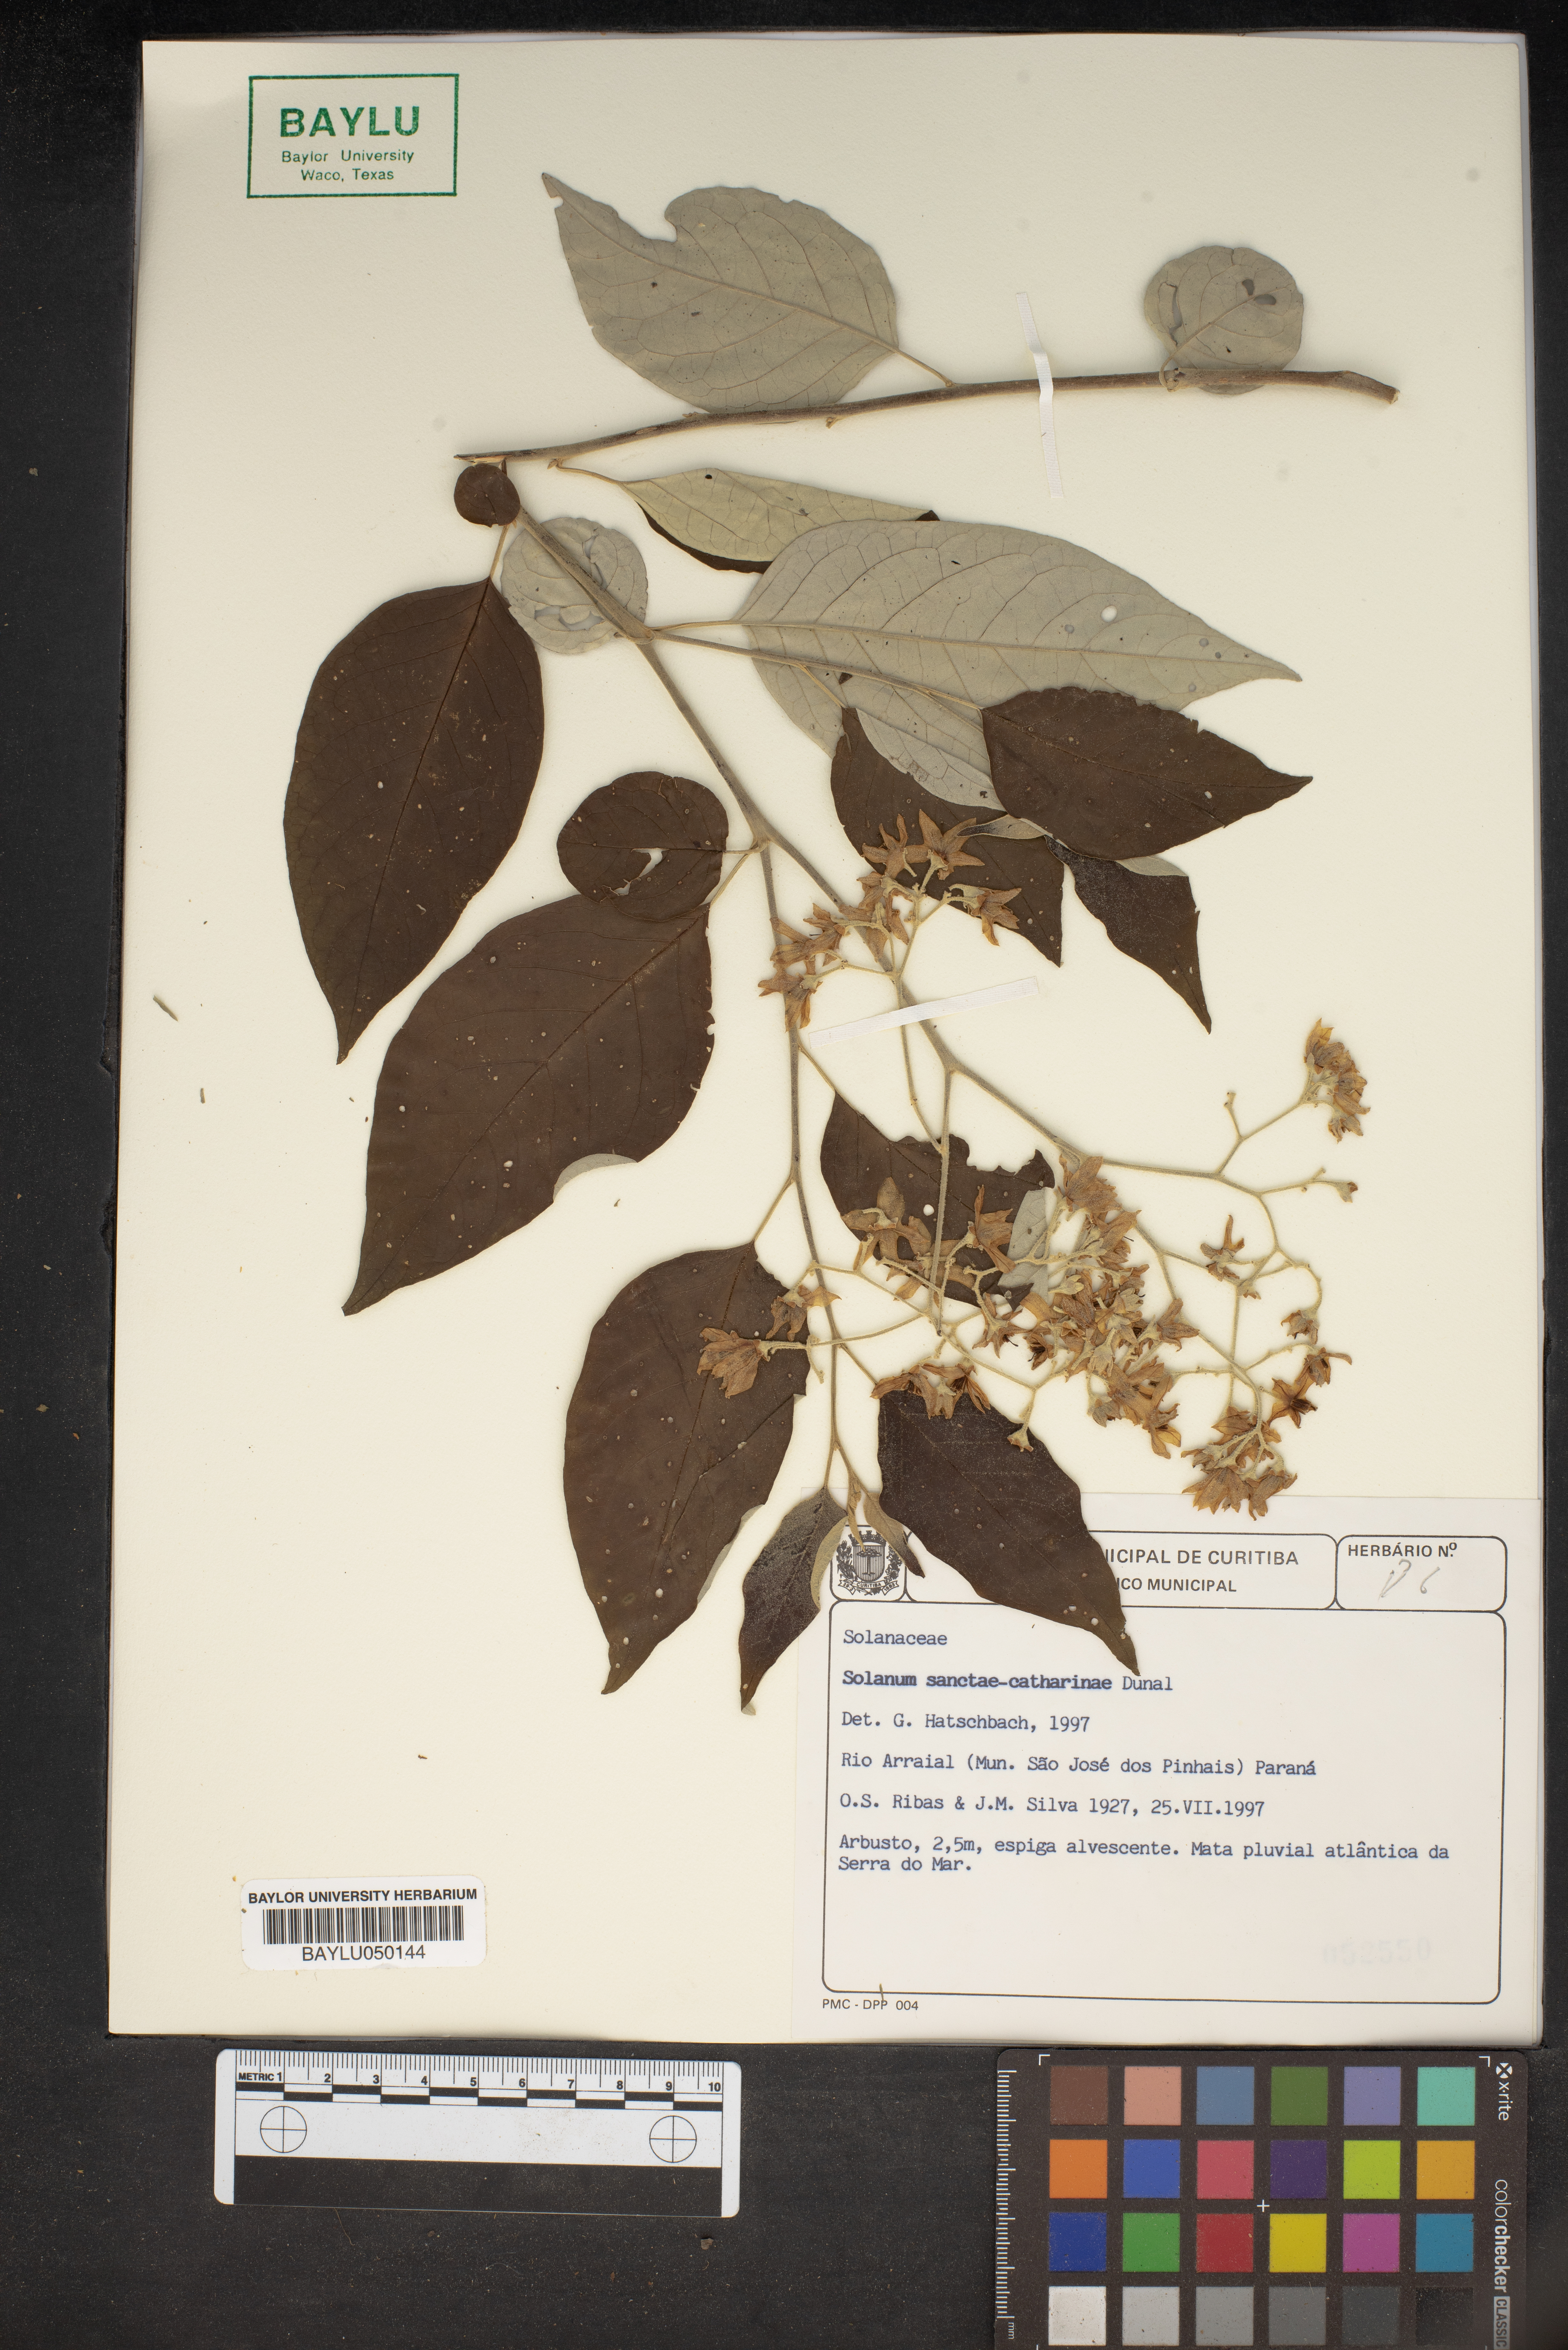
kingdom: Plantae
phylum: Tracheophyta
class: Magnoliopsida
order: Solanales
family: Solanaceae
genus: Solanum
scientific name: Solanum sanctae-catharinae
